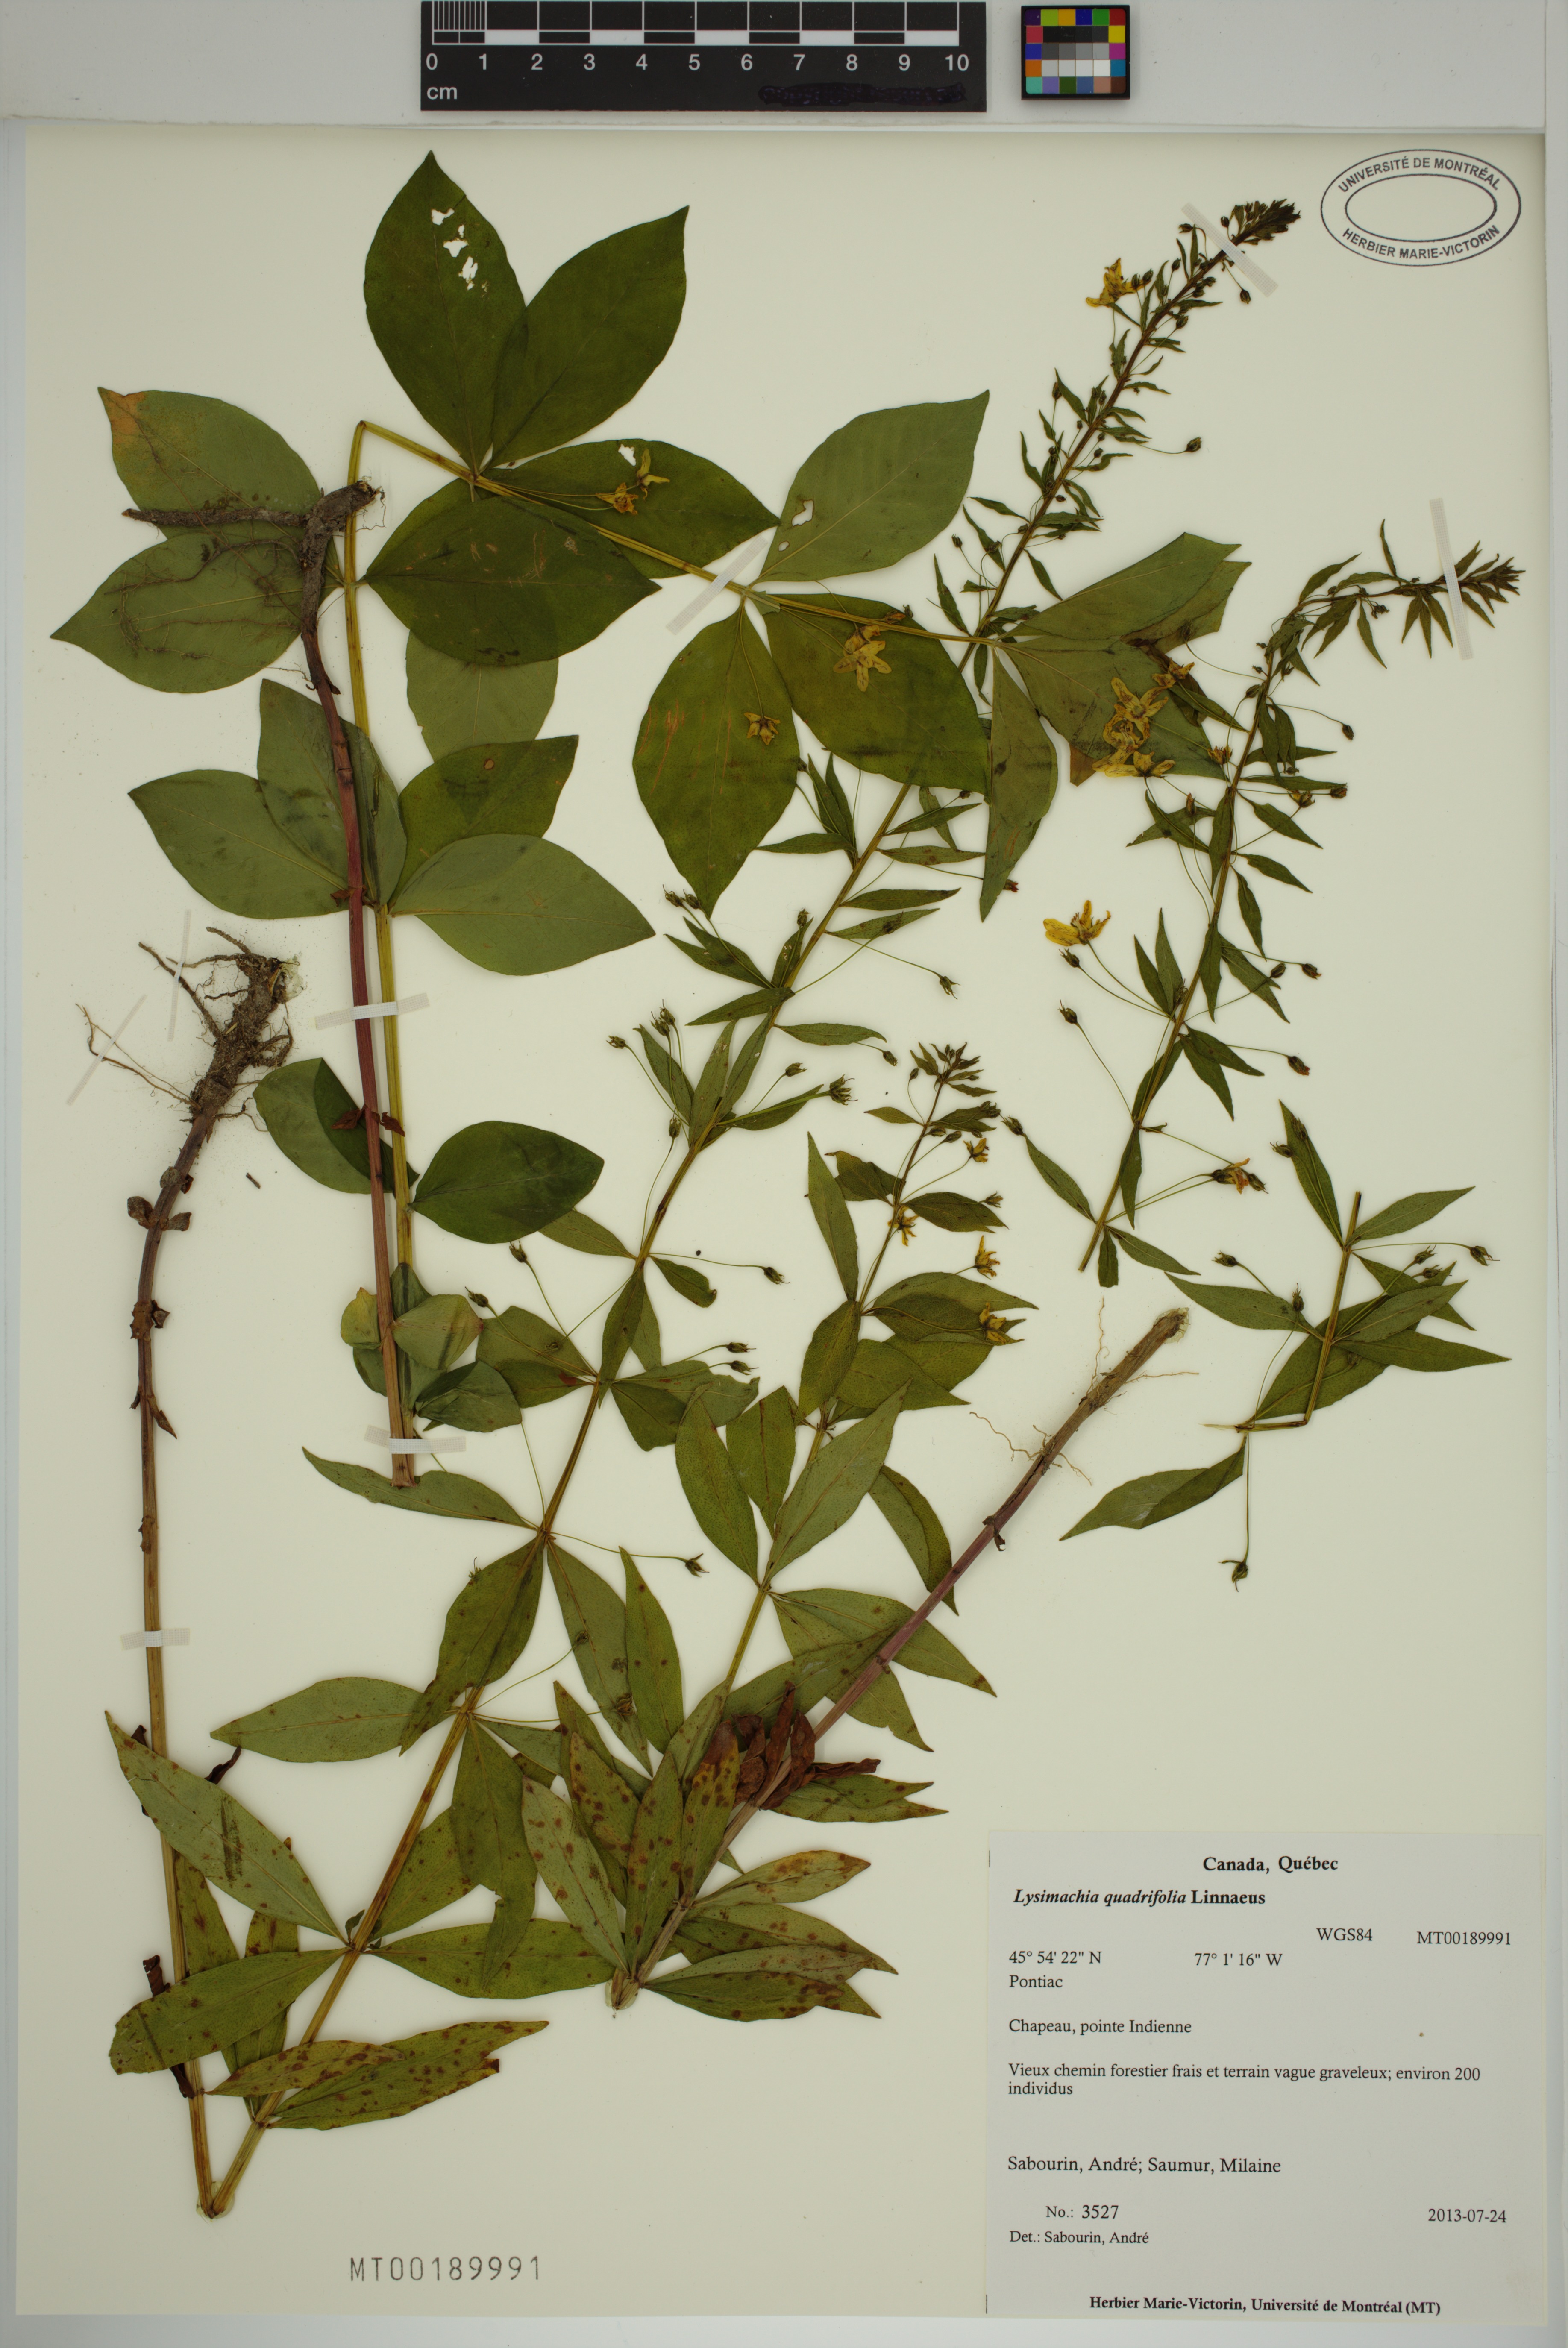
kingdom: Plantae
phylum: Tracheophyta
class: Magnoliopsida
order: Ericales
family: Primulaceae
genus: Lysimachia
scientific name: Lysimachia quadrifolia
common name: Whorled loosestrife
